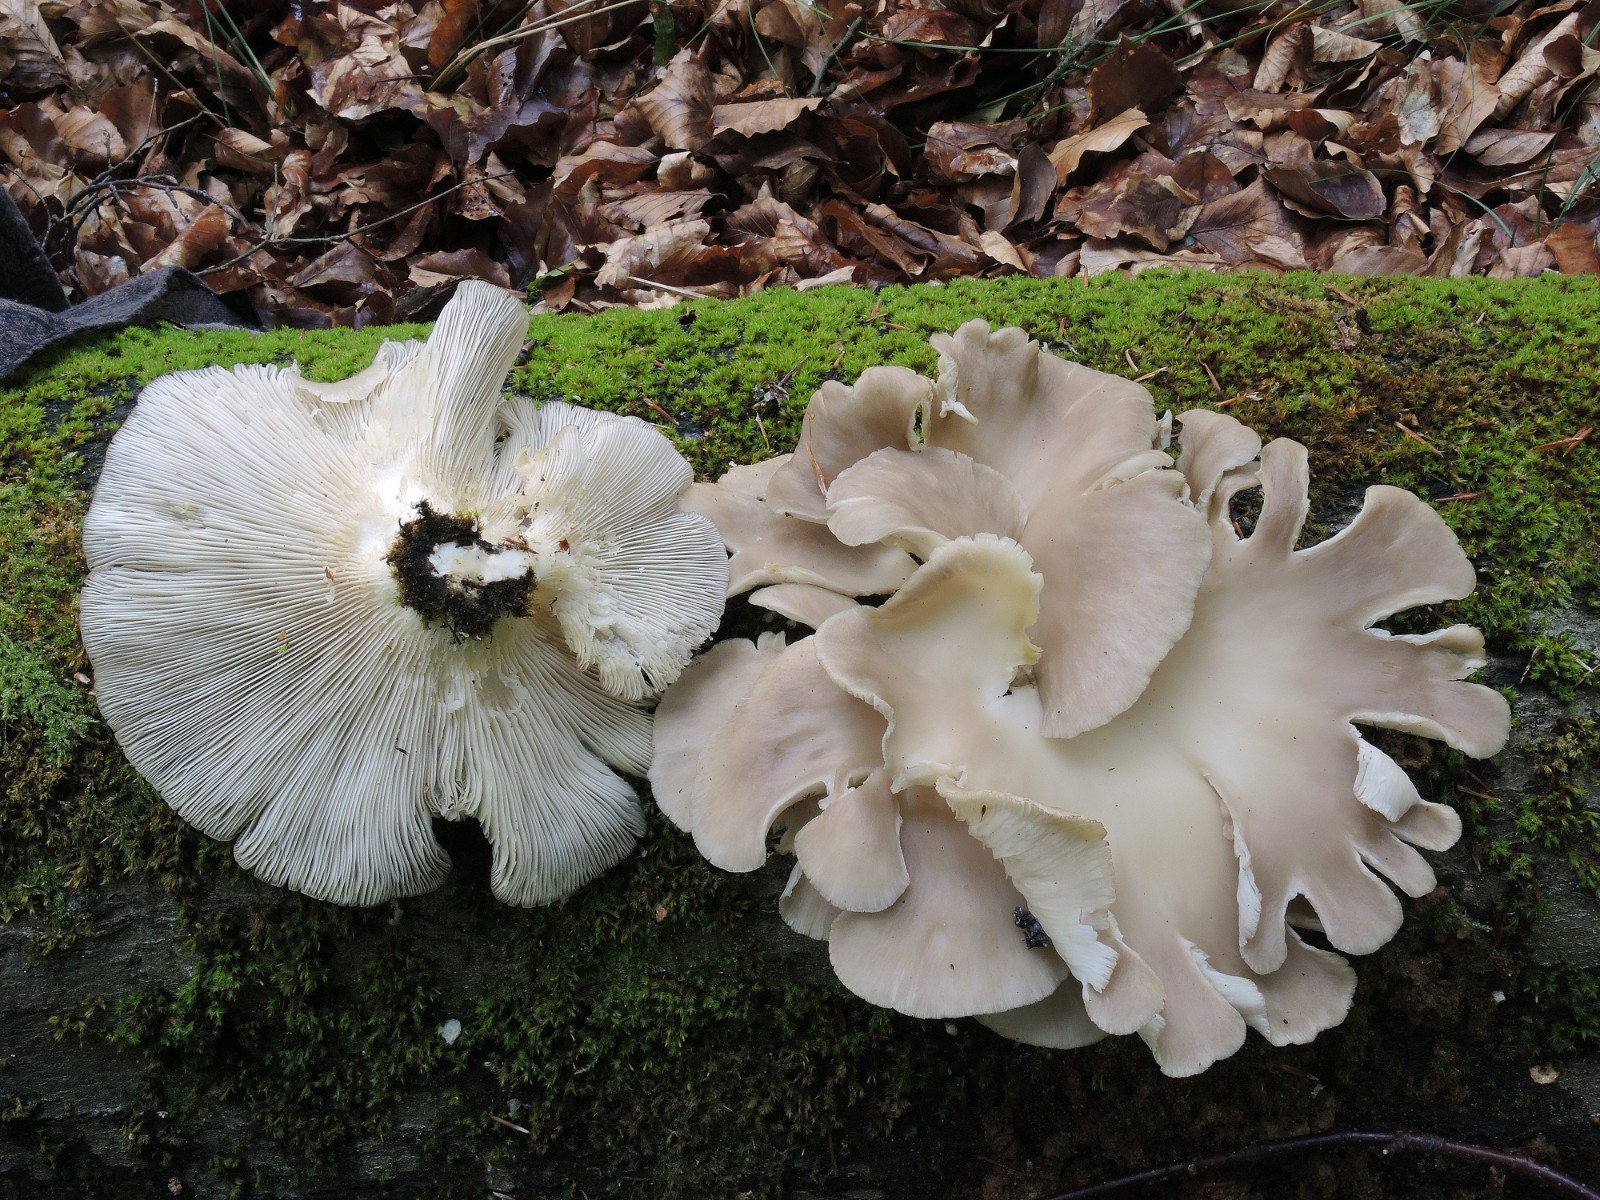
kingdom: Fungi
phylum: Basidiomycota
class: Agaricomycetes
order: Agaricales
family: Pleurotaceae
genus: Pleurotus
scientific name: Pleurotus pulmonarius
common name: sommer-østershat
